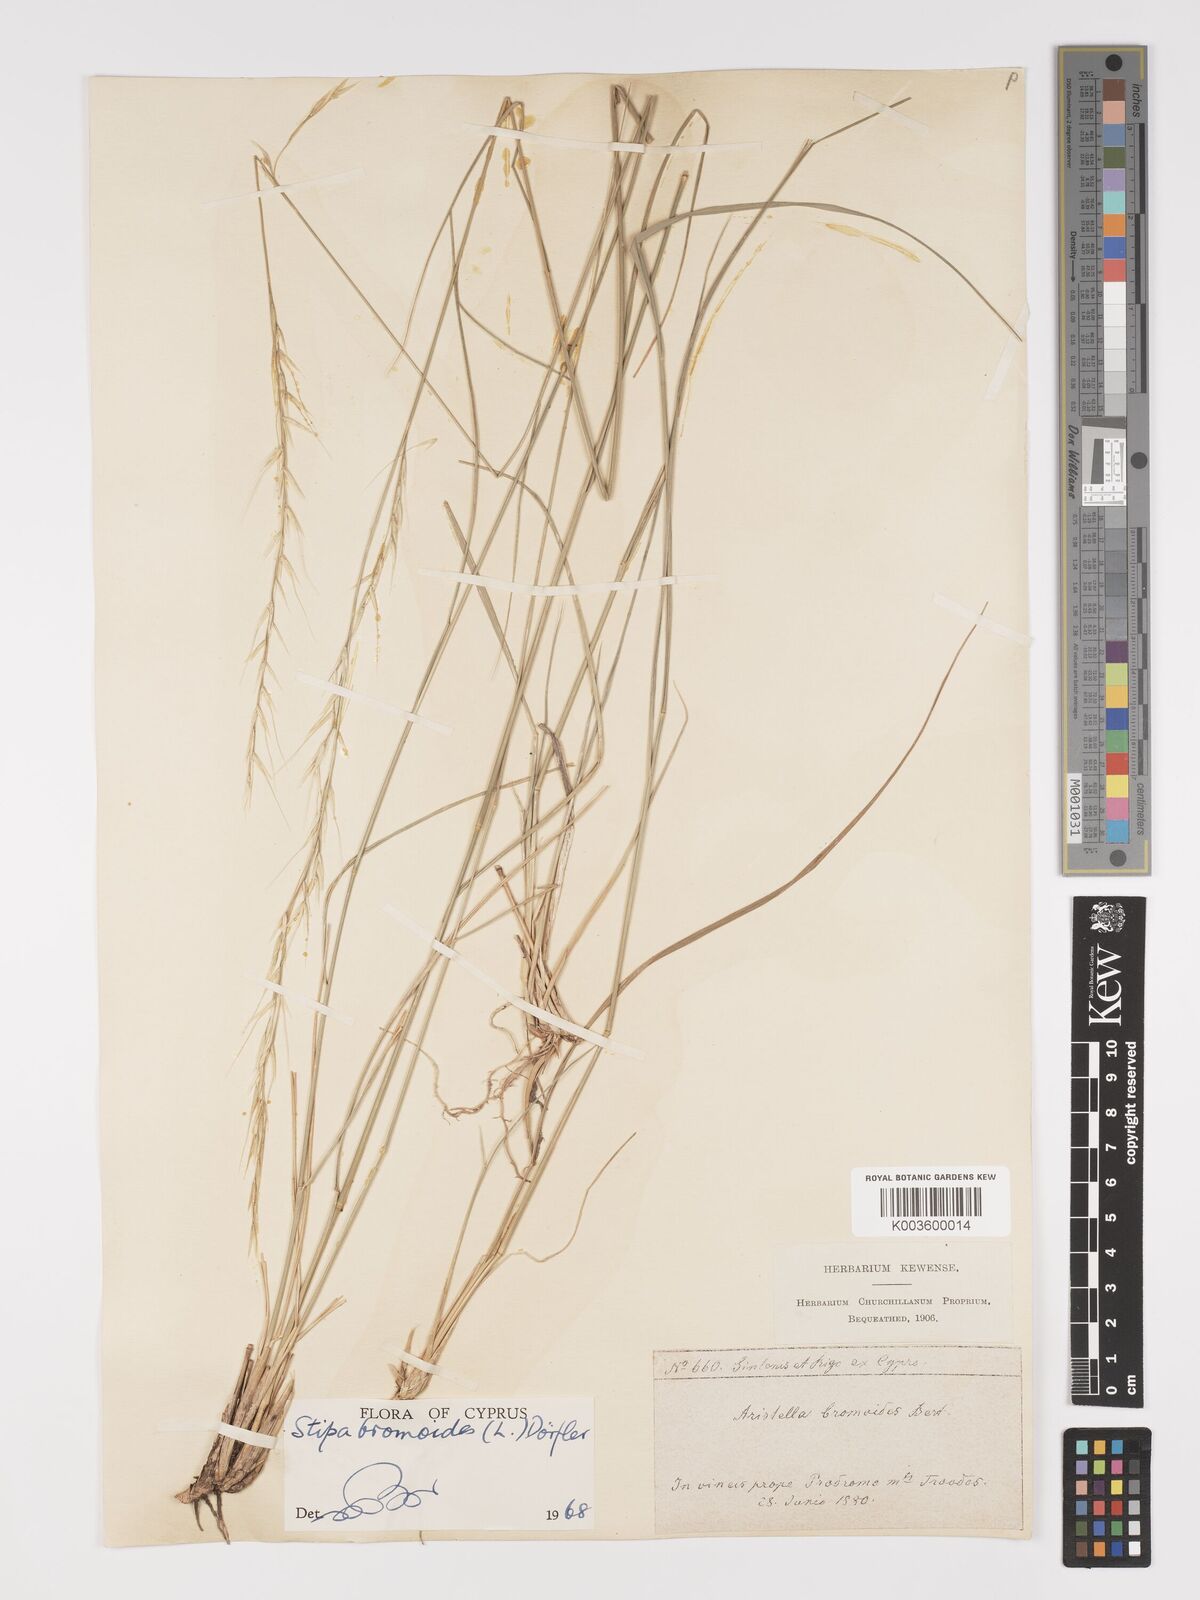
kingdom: Plantae
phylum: Tracheophyta
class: Liliopsida
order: Poales
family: Poaceae
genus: Achnatherum
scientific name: Achnatherum bromoides
